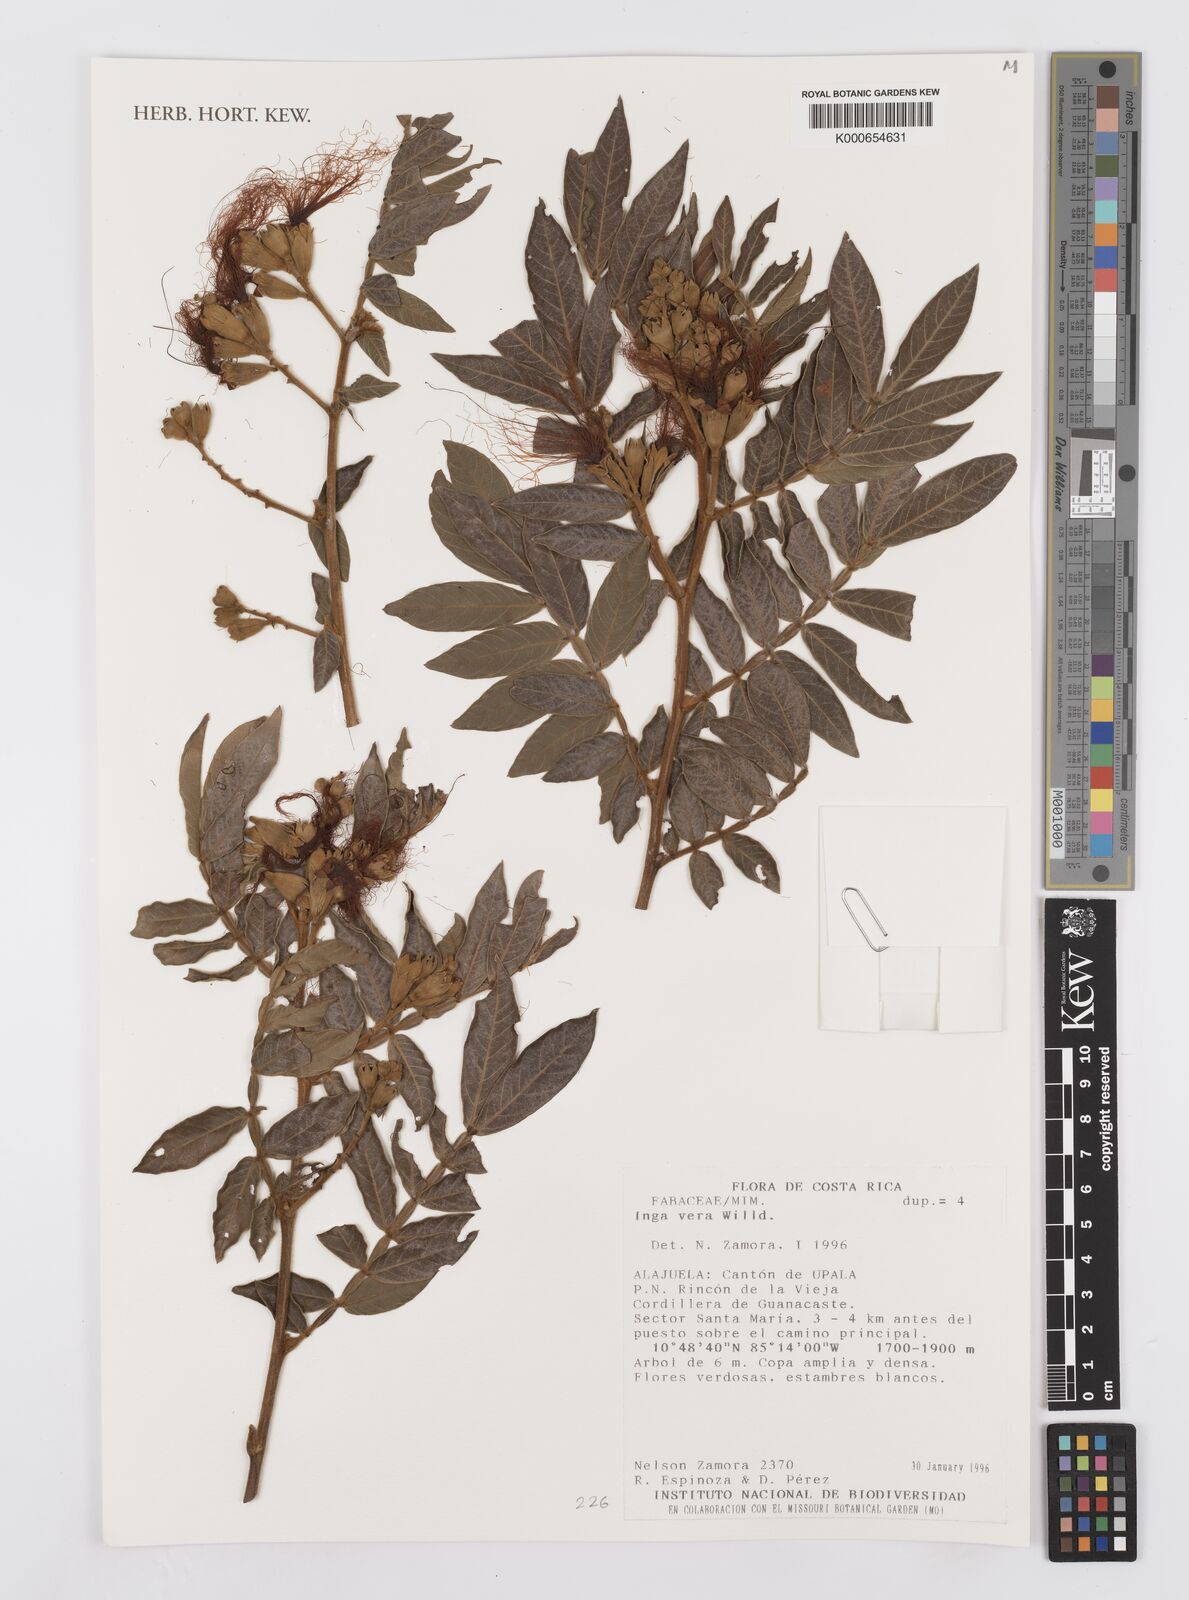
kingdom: Plantae
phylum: Tracheophyta
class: Magnoliopsida
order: Fabales
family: Fabaceae
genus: Inga
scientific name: Inga vera
